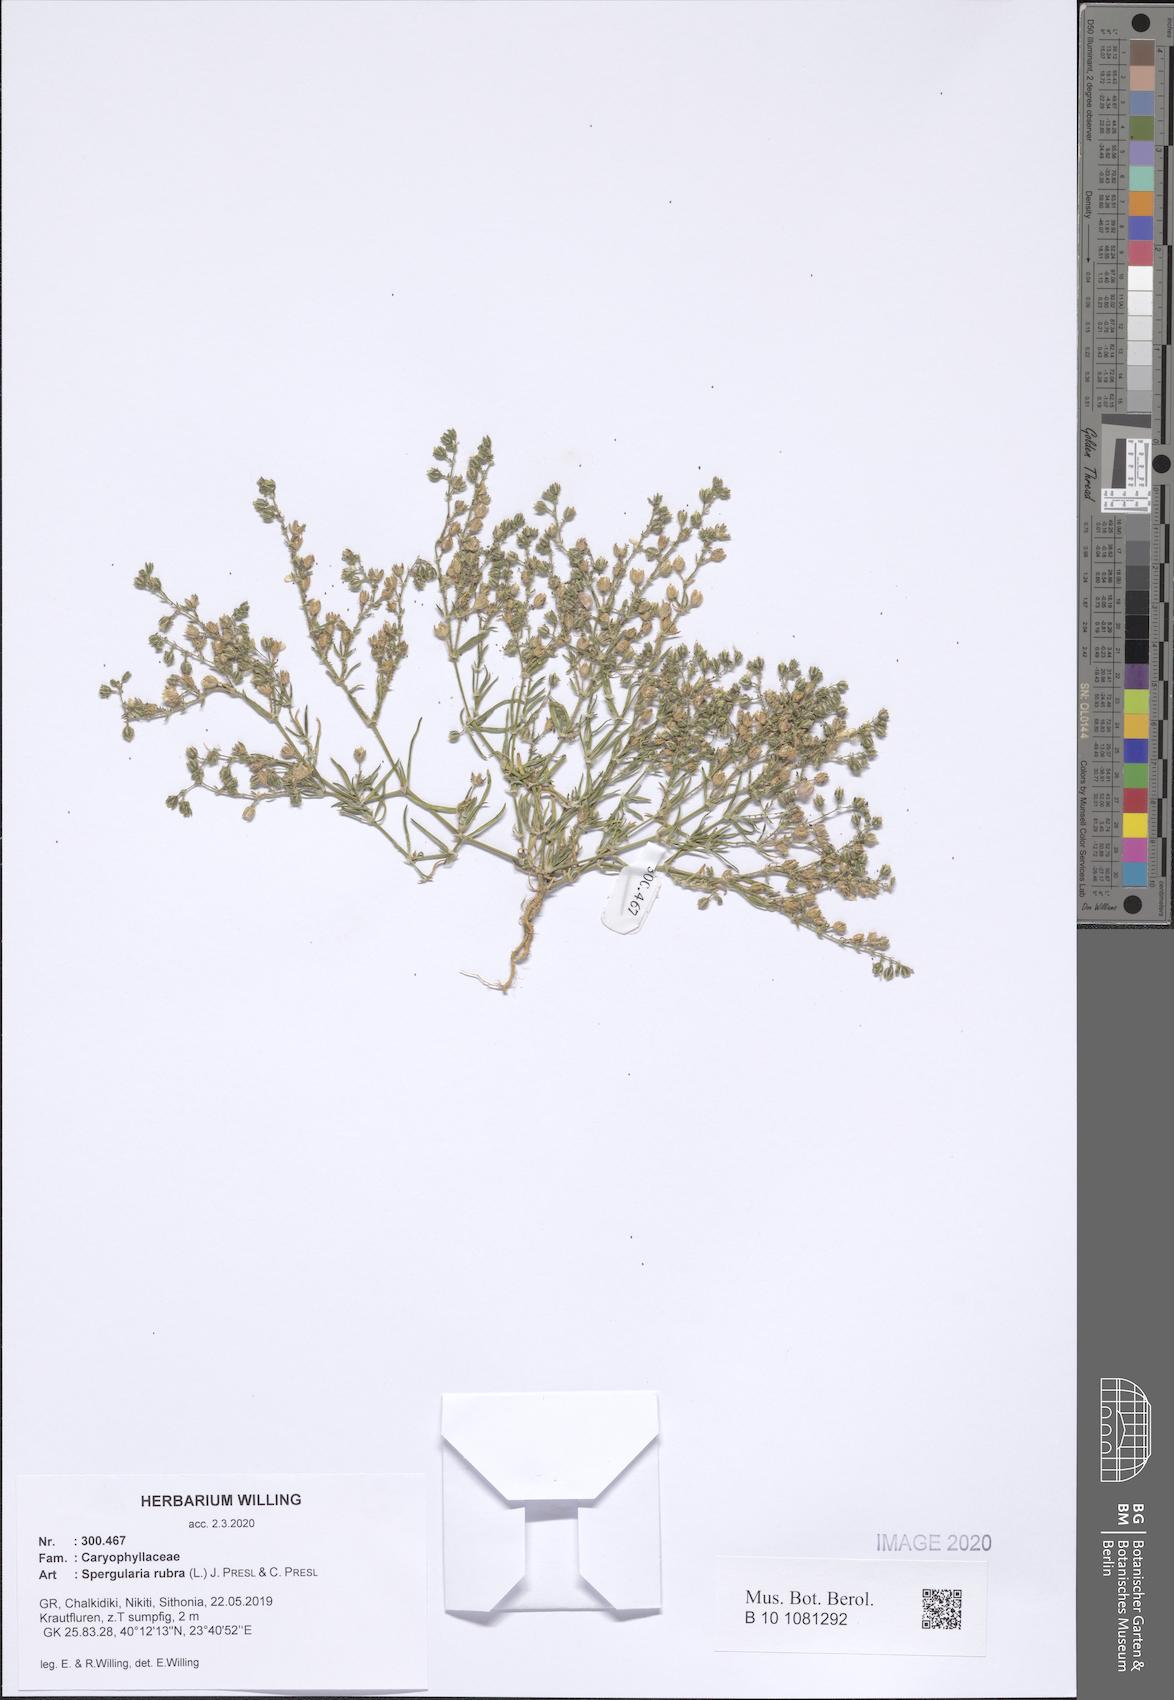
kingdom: Plantae
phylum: Tracheophyta
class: Magnoliopsida
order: Caryophyllales
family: Caryophyllaceae
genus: Spergularia
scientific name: Spergularia rubra
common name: Red sand-spurrey
